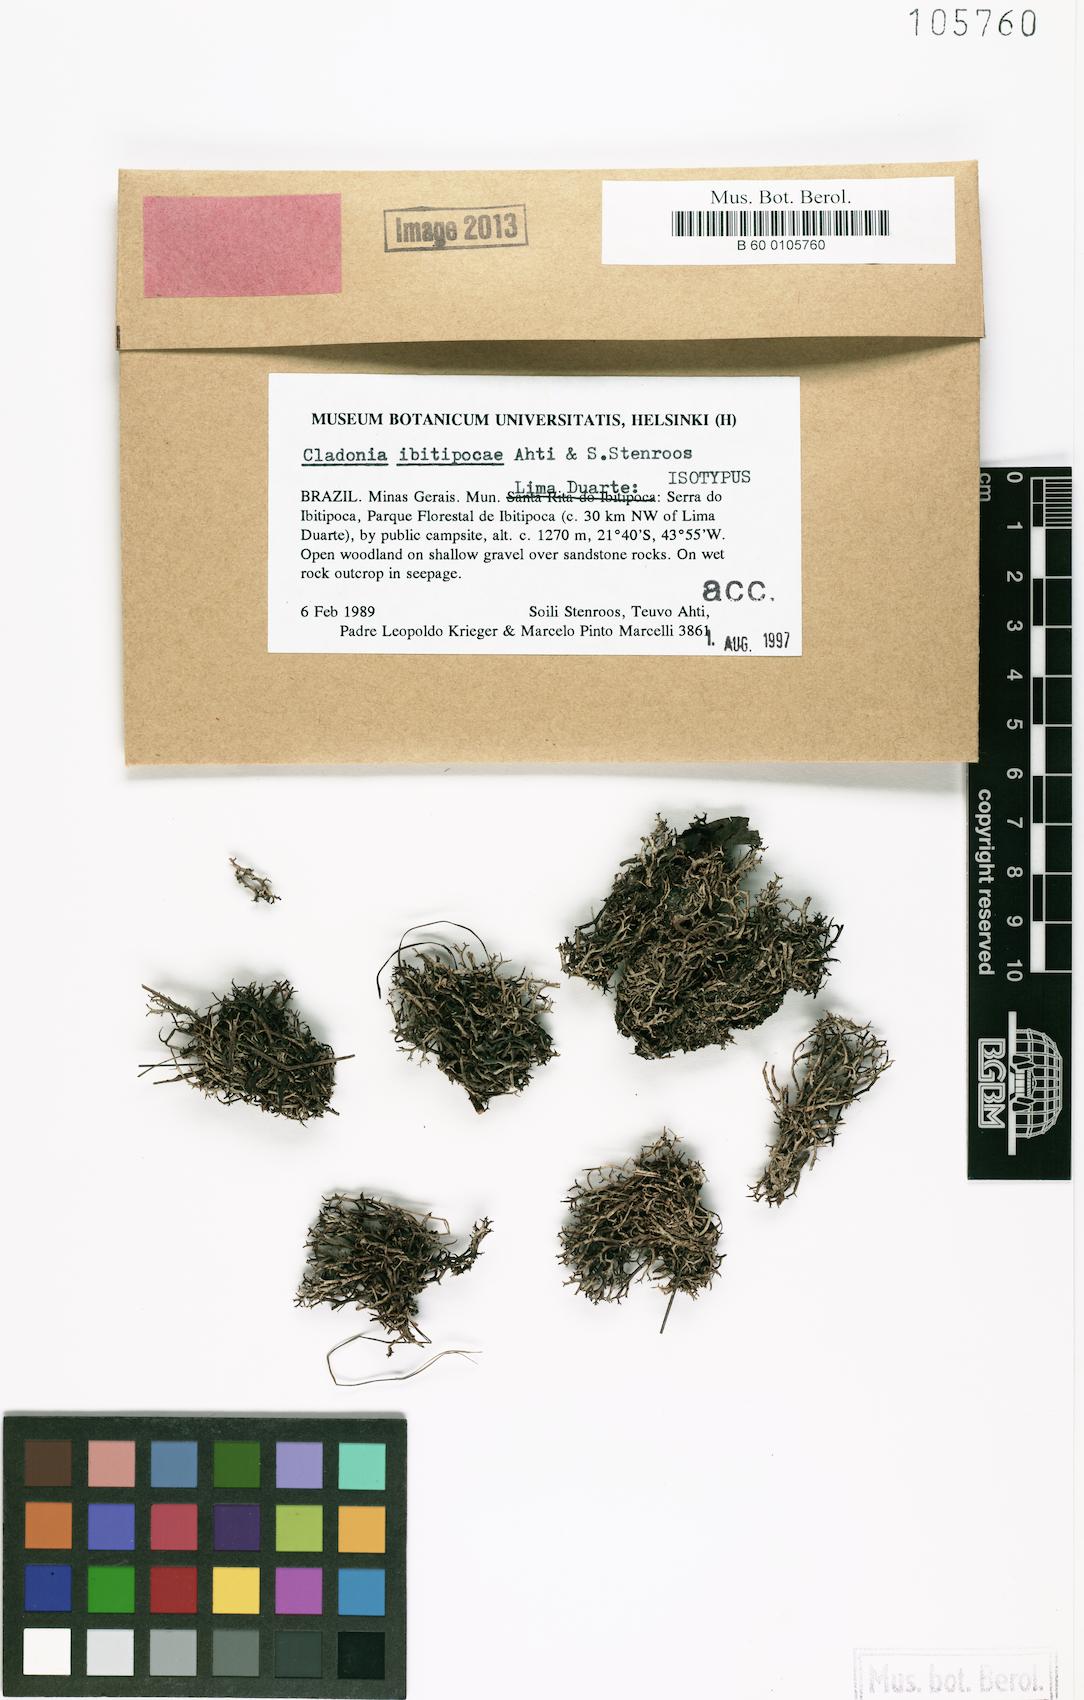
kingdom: Fungi
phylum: Ascomycota
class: Lecanoromycetes
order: Lecanorales
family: Cladoniaceae
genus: Cladonia
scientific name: Cladonia ibitipocae
